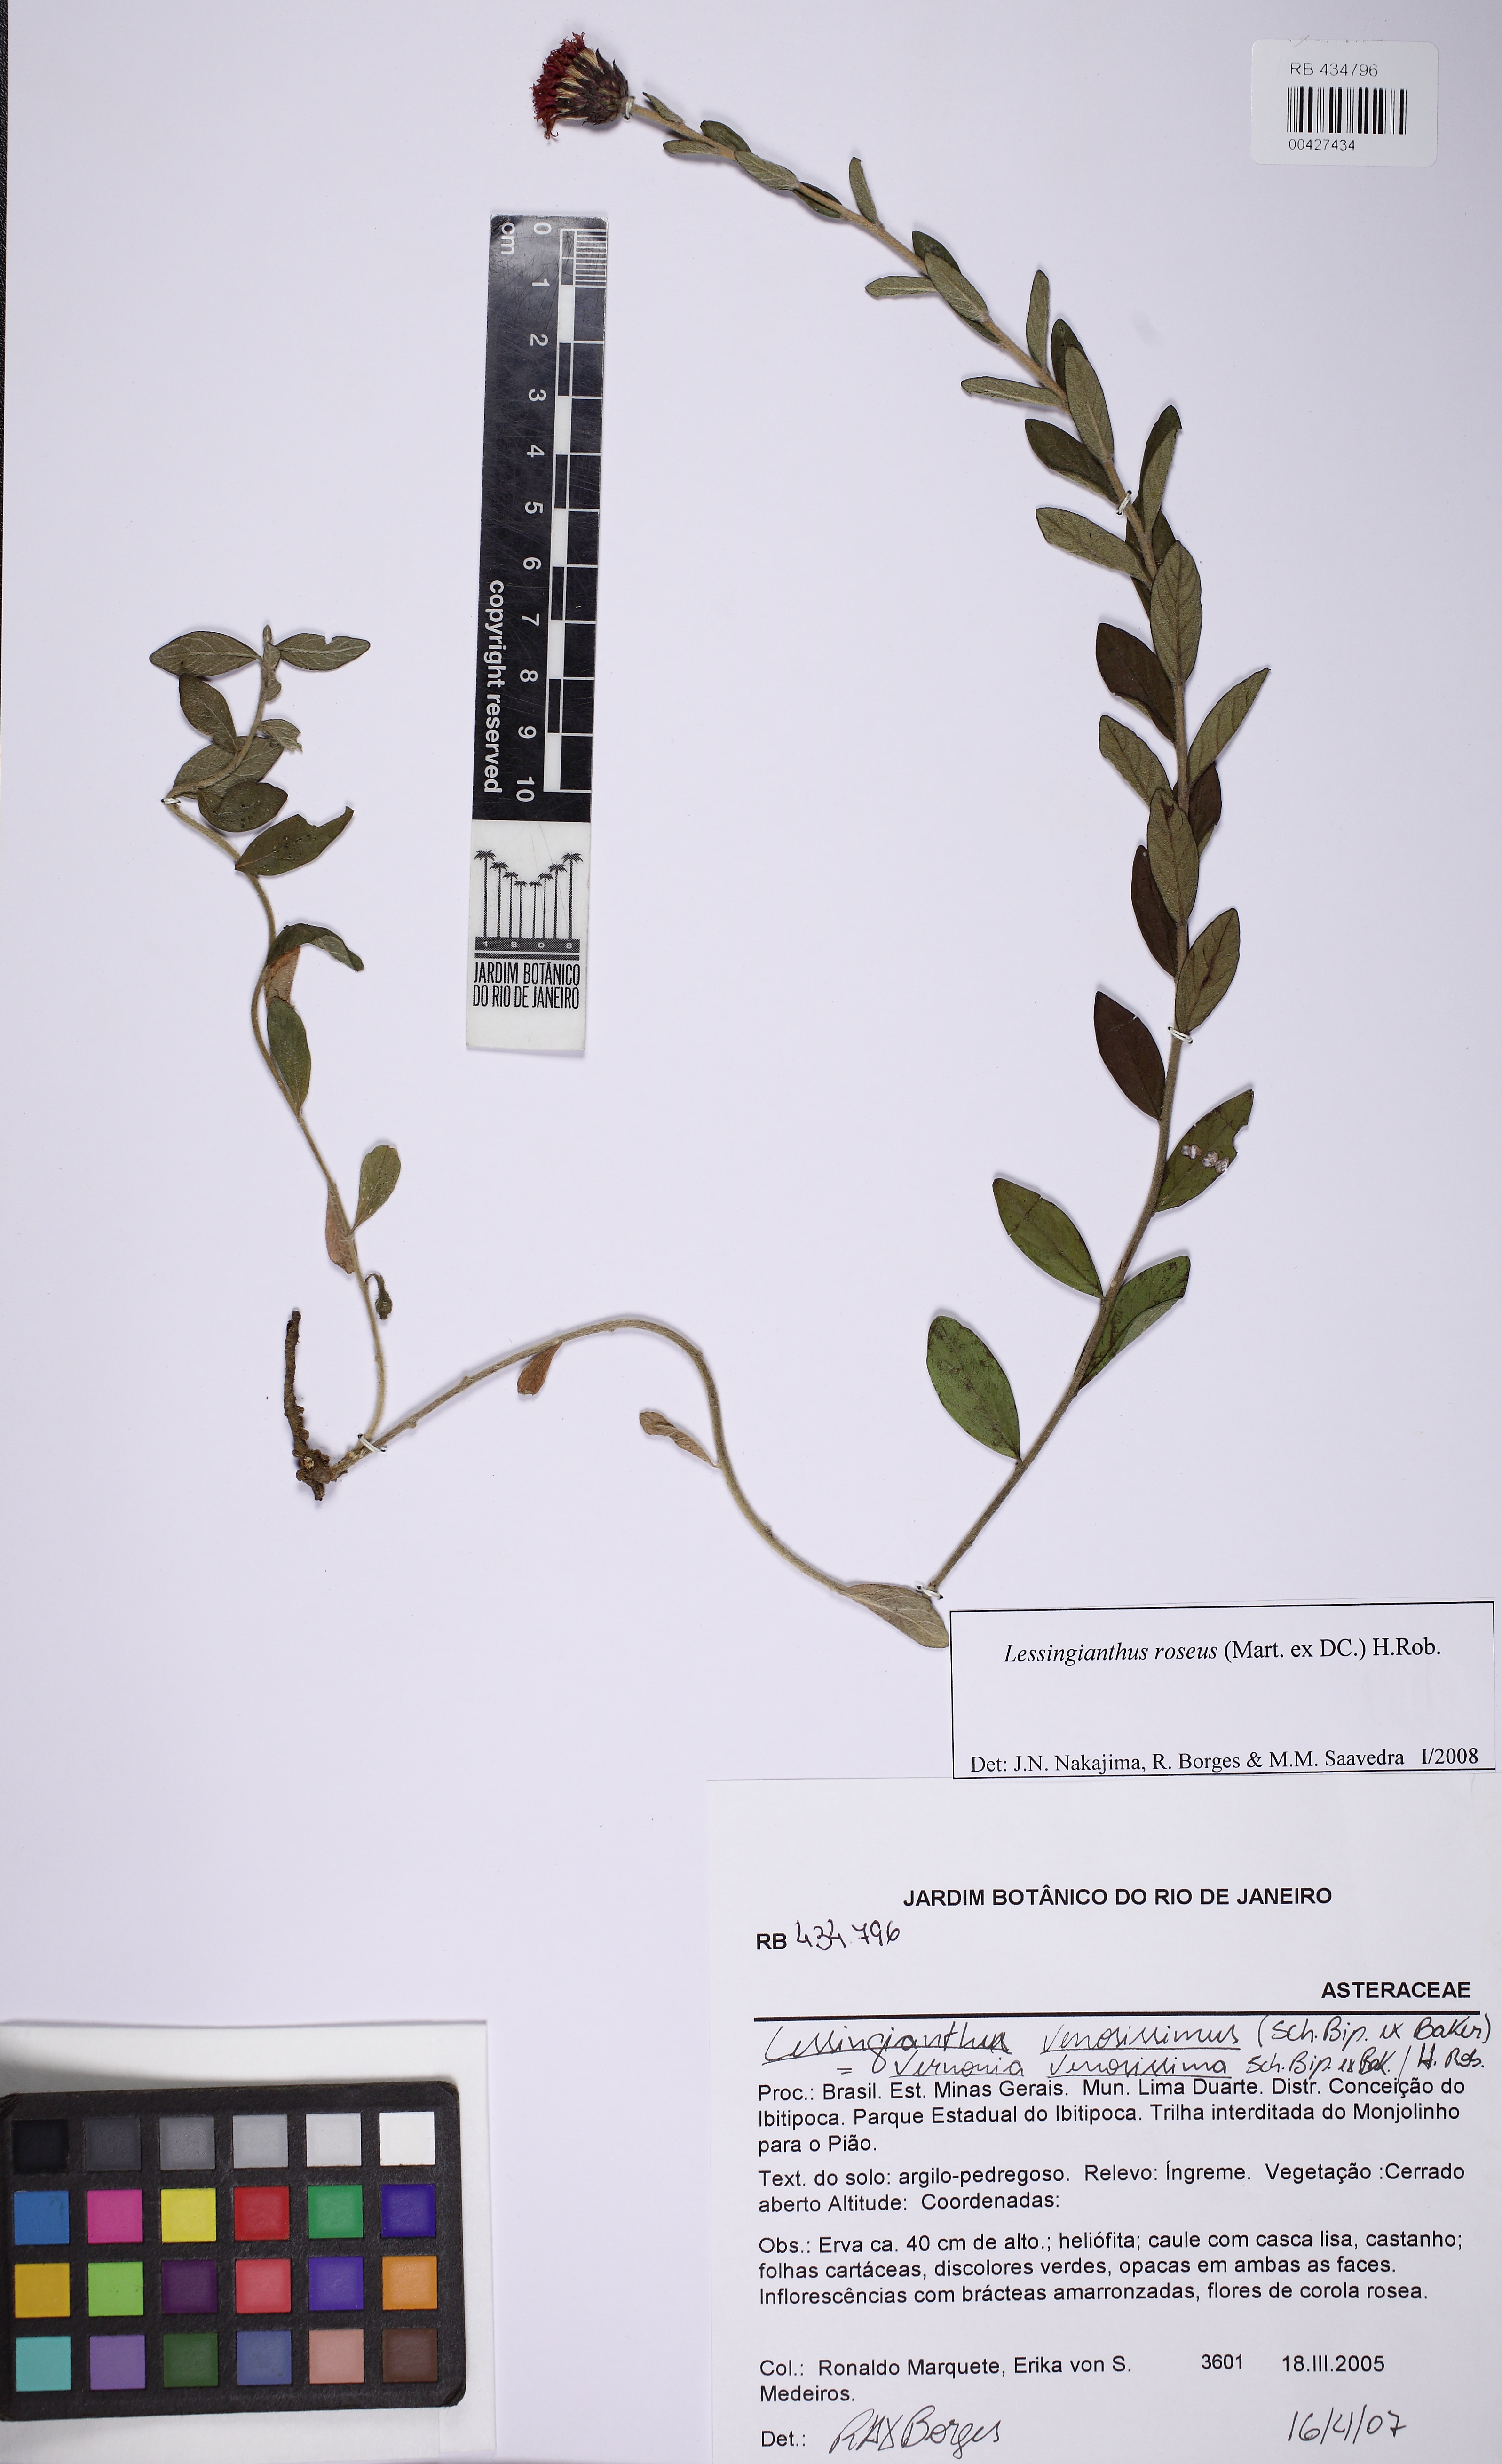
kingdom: Plantae
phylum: Tracheophyta
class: Magnoliopsida
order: Asterales
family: Asteraceae
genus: Lessingianthus
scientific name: Lessingianthus roseus
